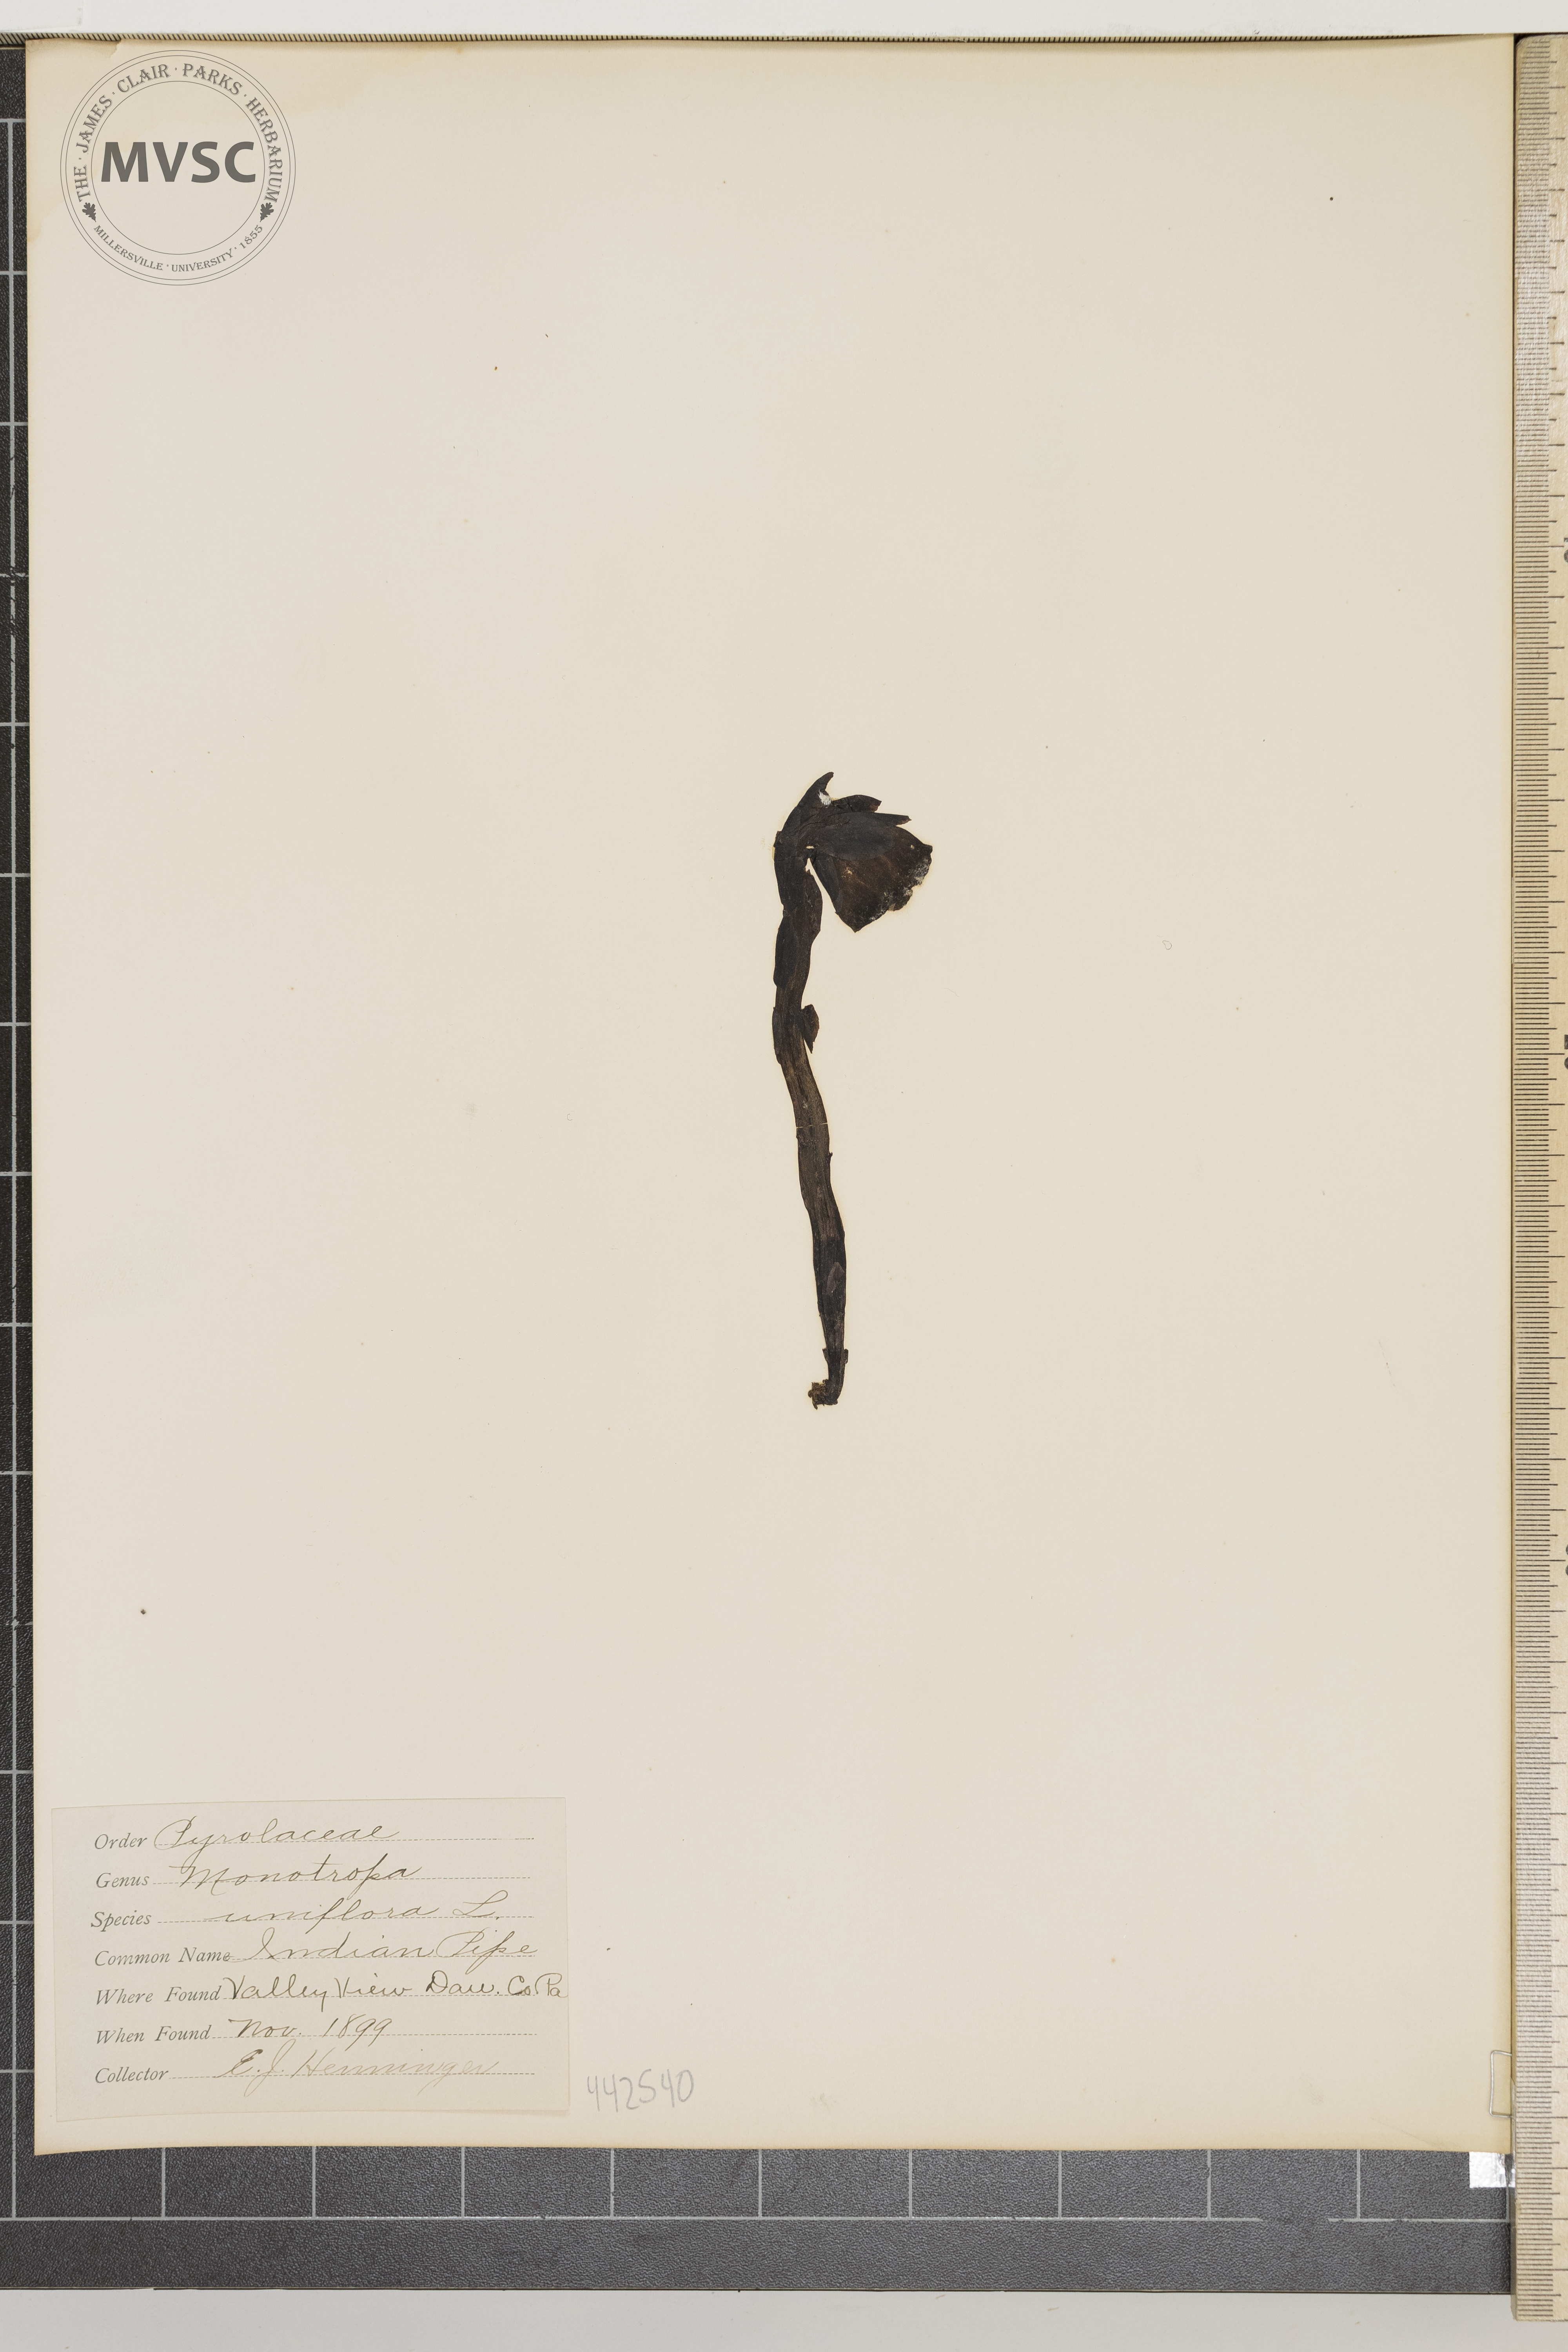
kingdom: Plantae
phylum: Tracheophyta
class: Magnoliopsida
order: Ericales
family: Ericaceae
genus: Monotropa
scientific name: Monotropa uniflora
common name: Indian pipe
